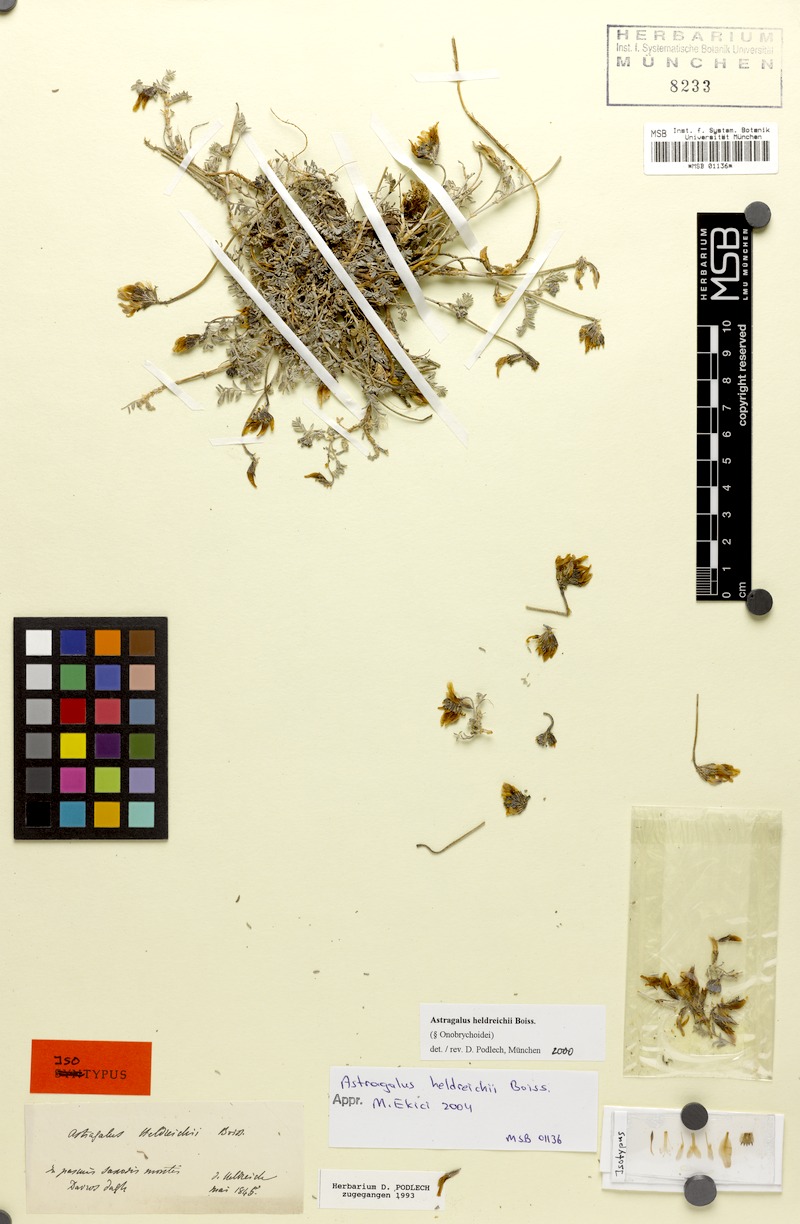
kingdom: Plantae
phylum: Tracheophyta
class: Magnoliopsida
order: Fabales
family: Fabaceae
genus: Astragalus
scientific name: Astragalus heldreichii
